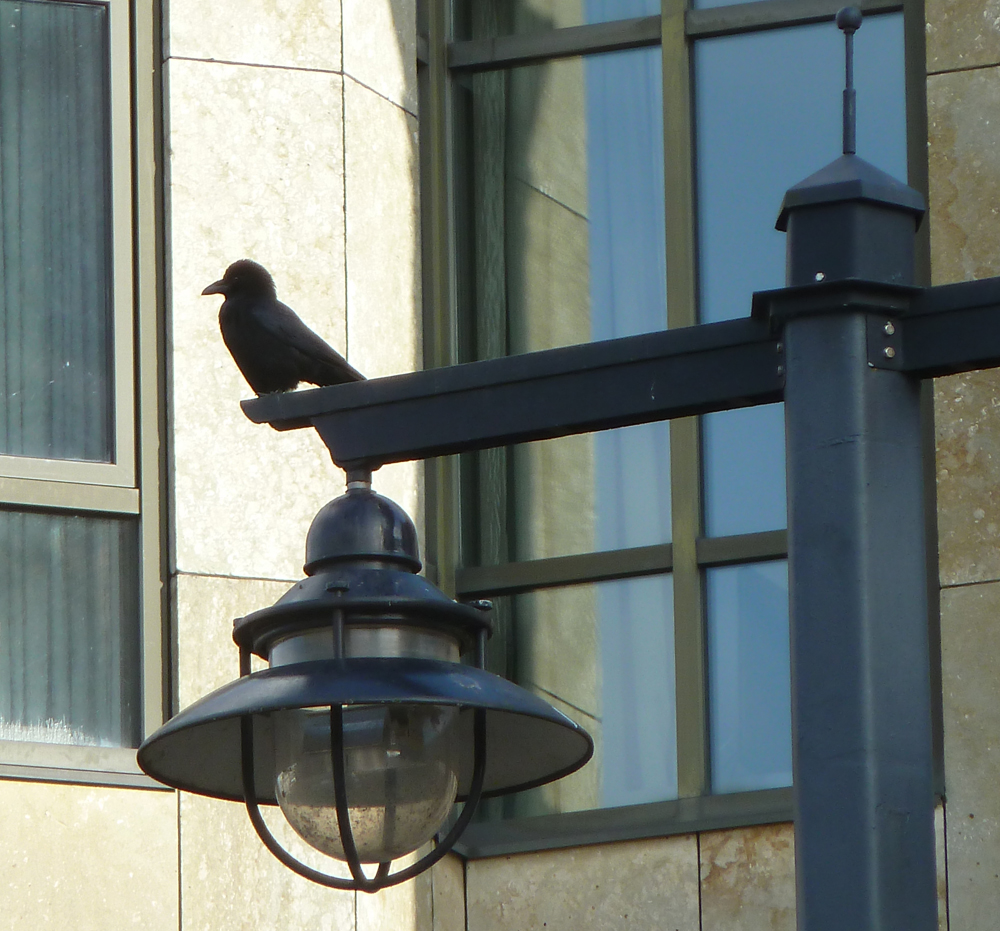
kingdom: Animalia
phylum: Chordata
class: Aves
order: Passeriformes
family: Corvidae
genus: Corvus
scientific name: Corvus corone
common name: Carrion crow
